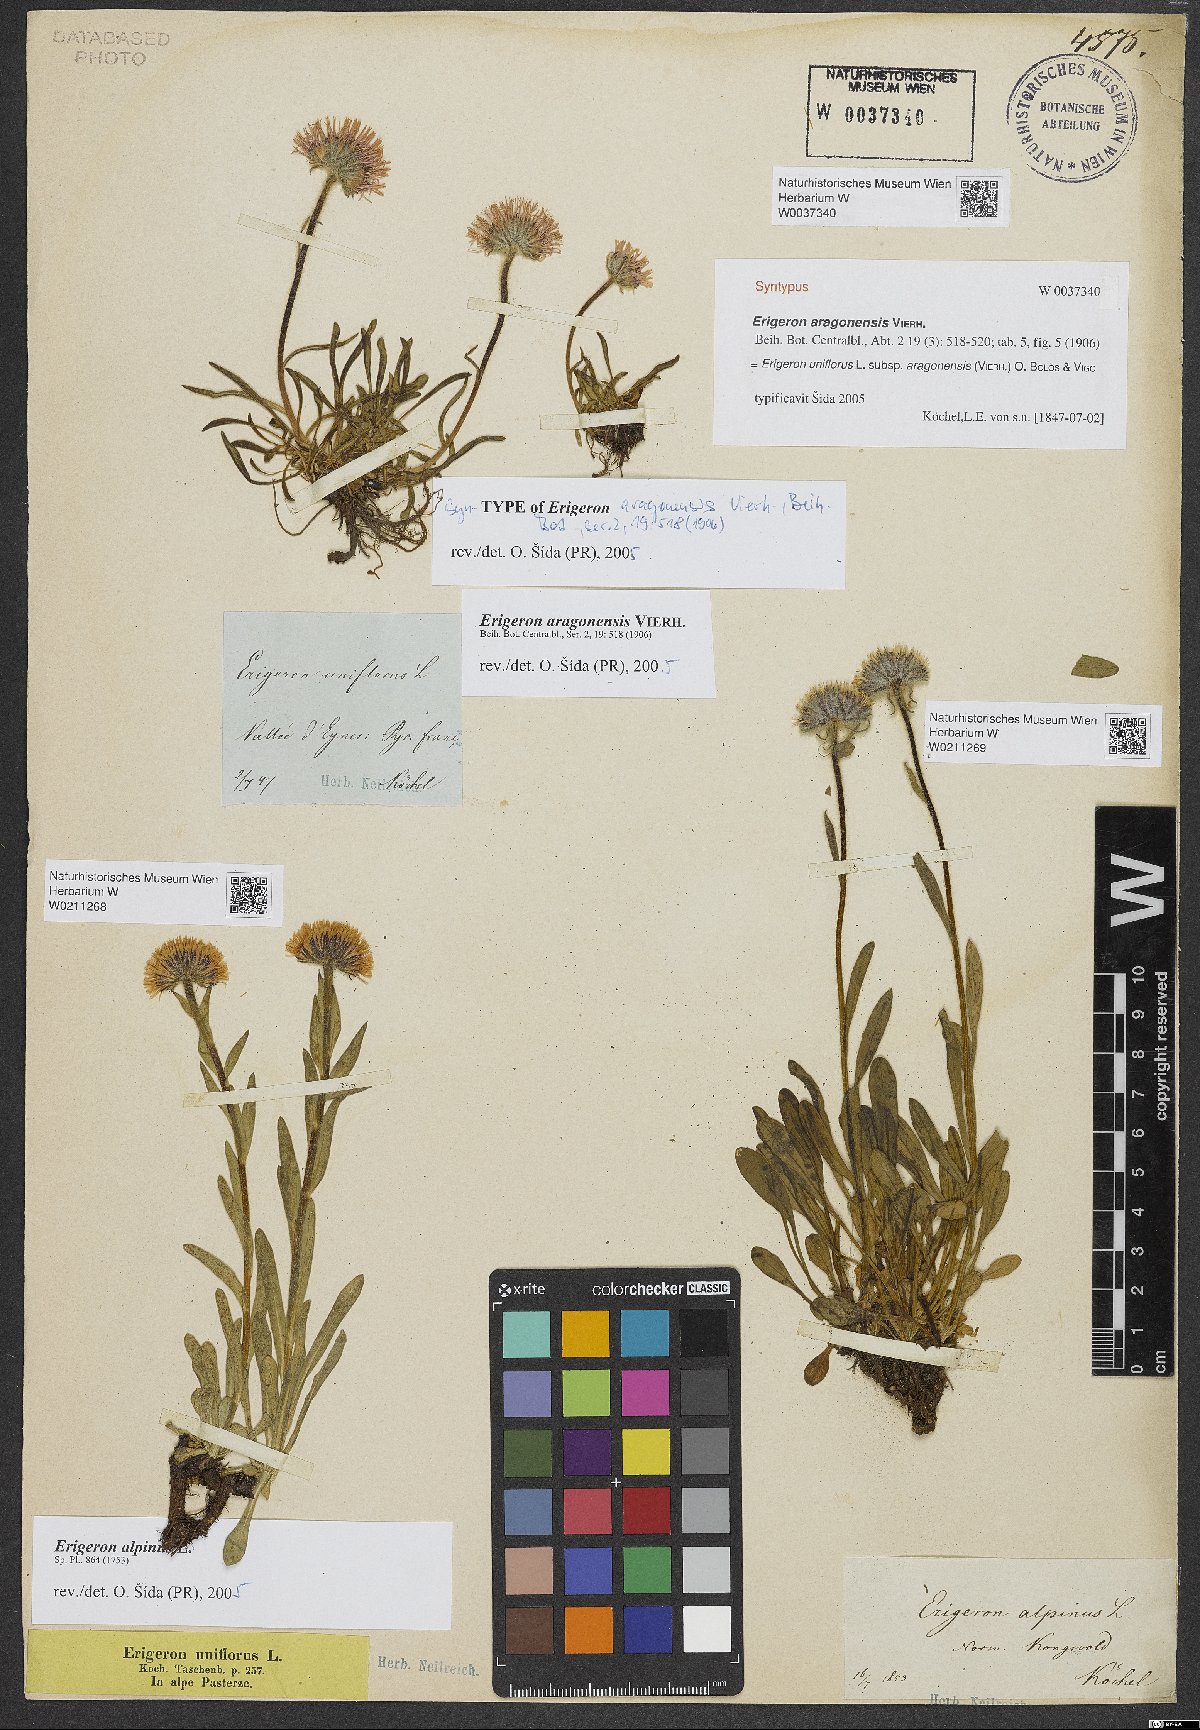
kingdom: Plantae
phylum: Tracheophyta
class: Magnoliopsida
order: Asterales
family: Asteraceae
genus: Erigeron
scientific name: Erigeron alpinus
